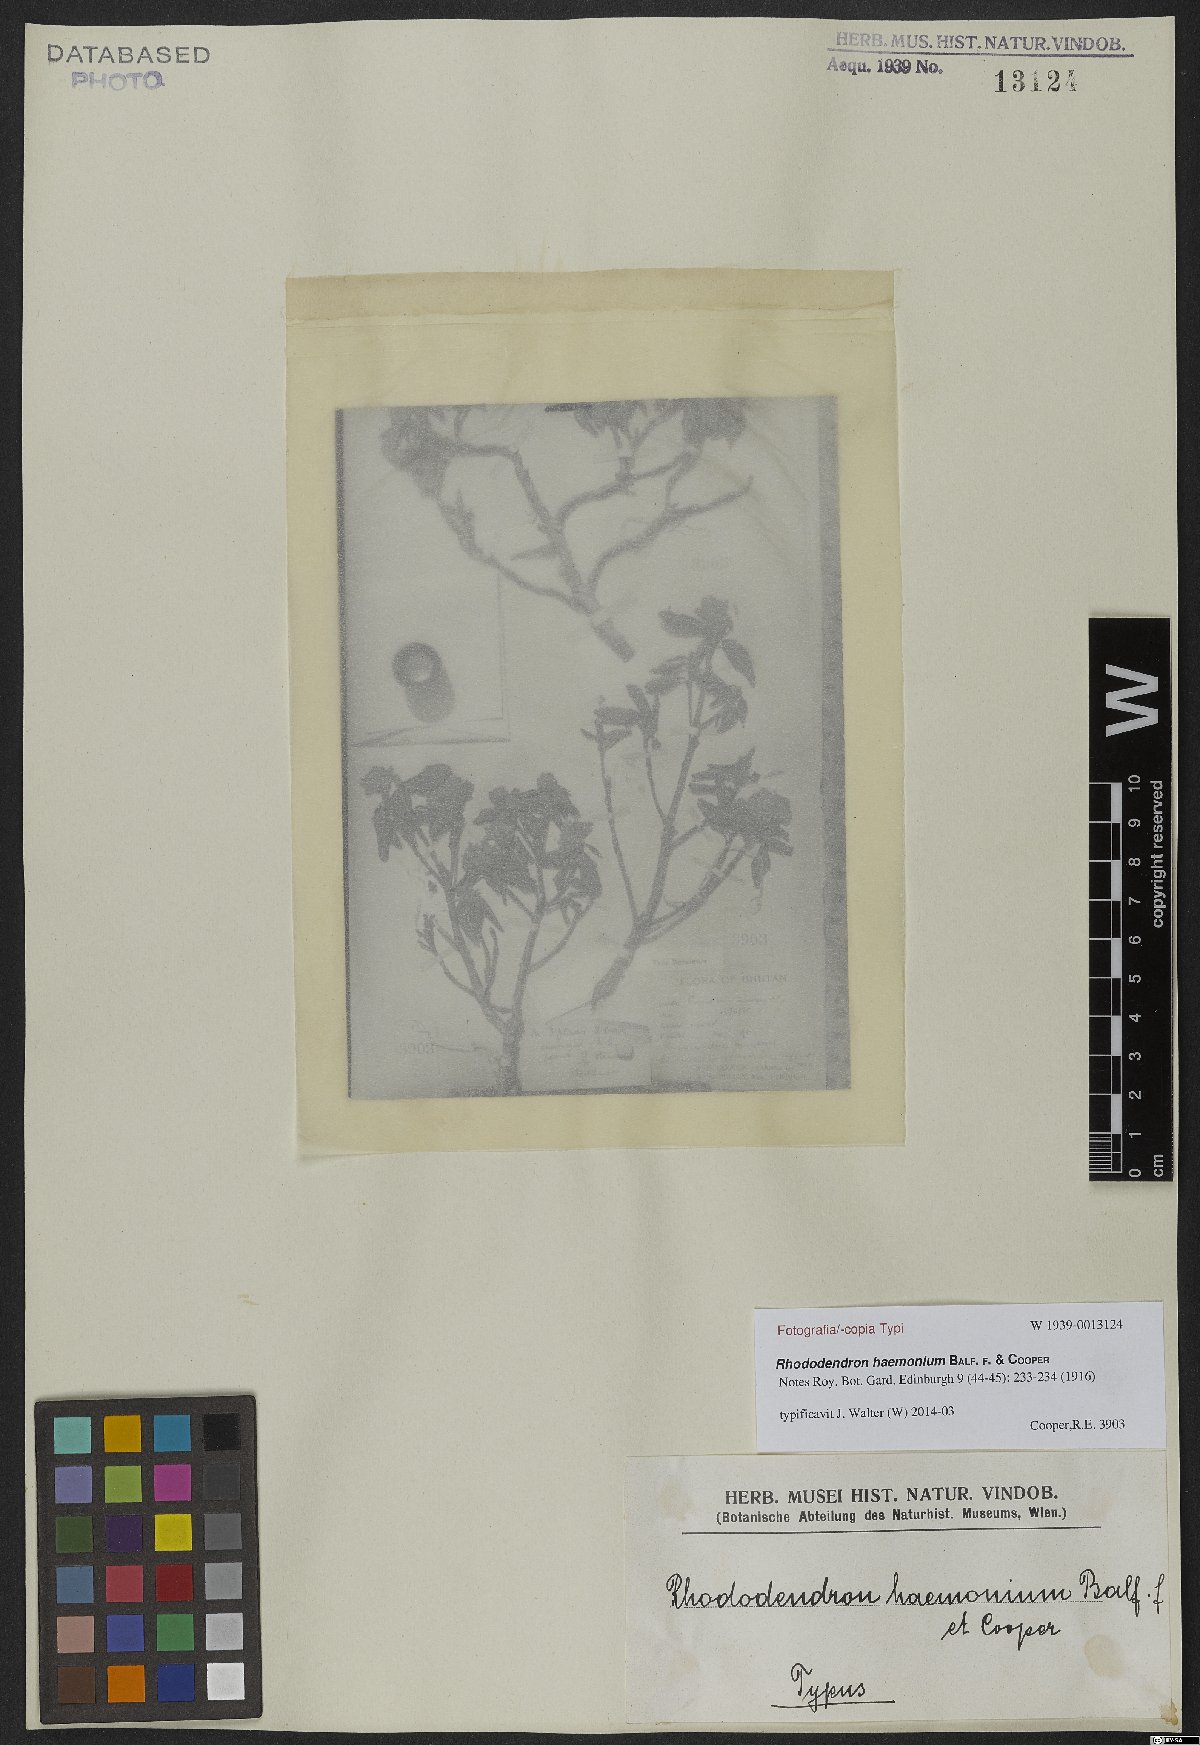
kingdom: Plantae
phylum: Tracheophyta
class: Magnoliopsida
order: Ericales
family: Ericaceae
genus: Rhododendron
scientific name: Rhododendron anthopogon
